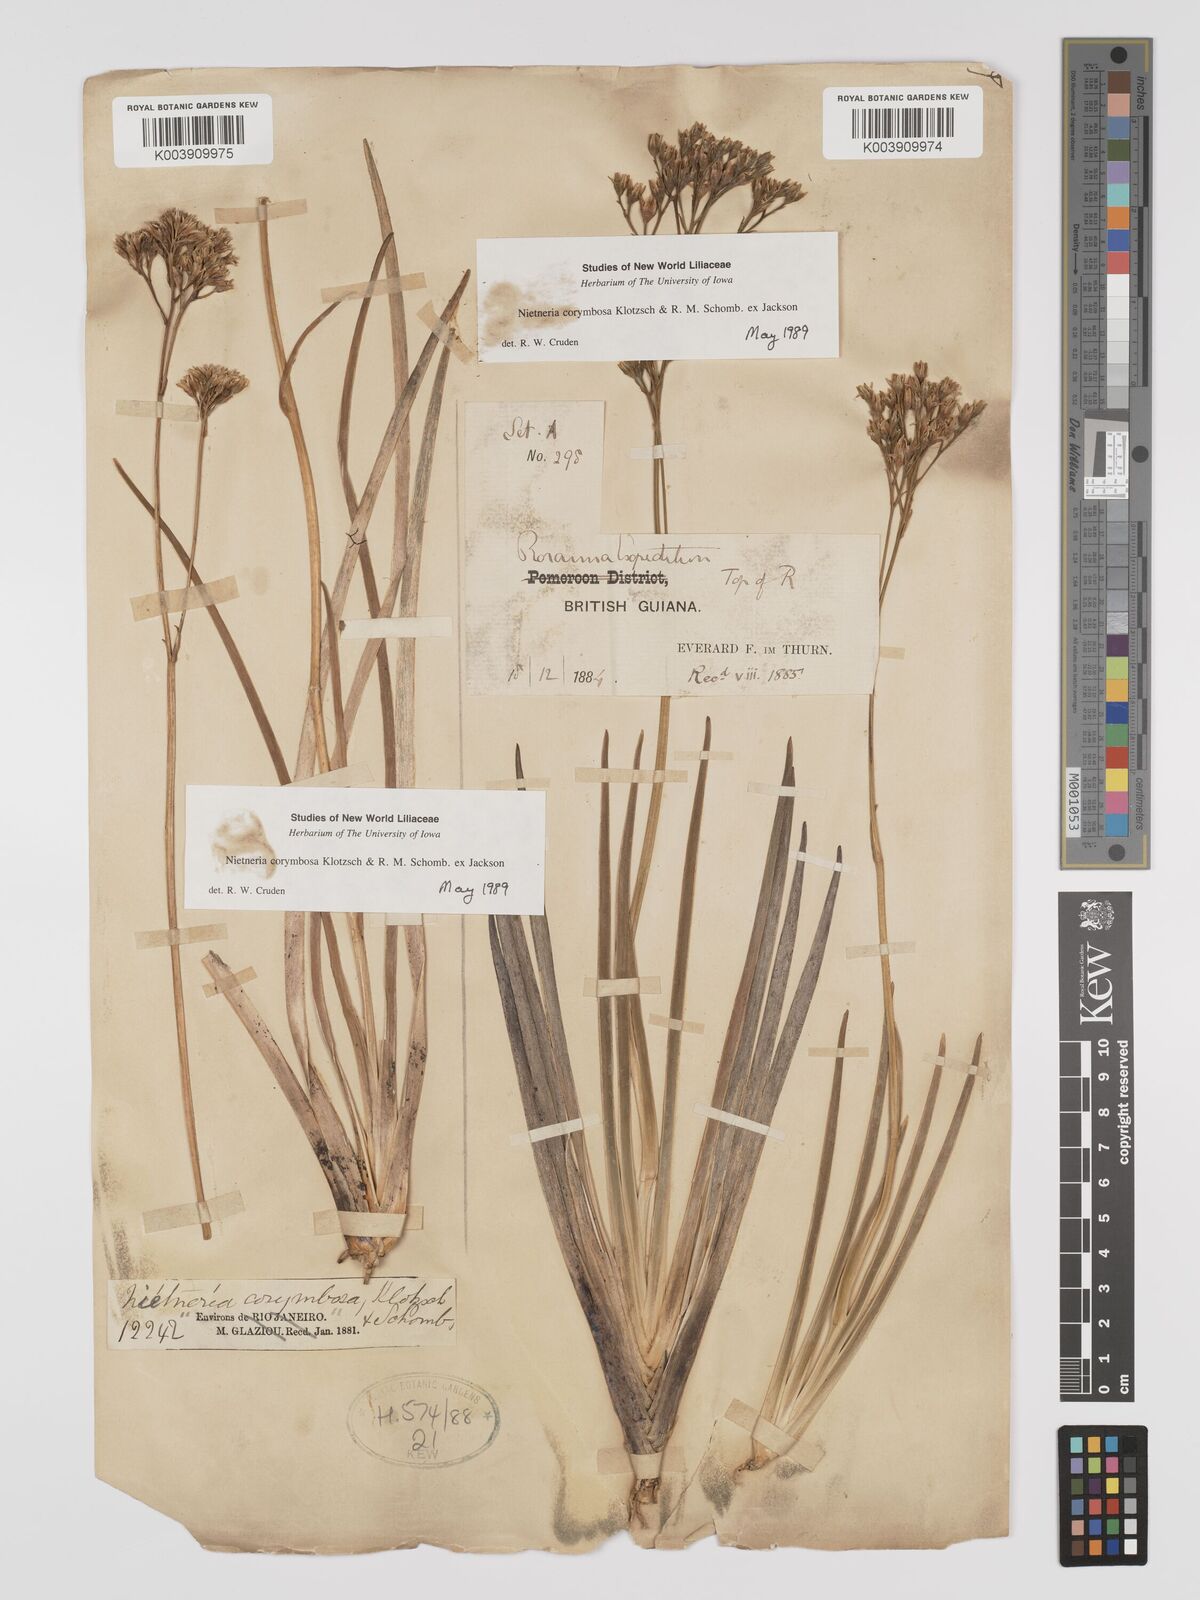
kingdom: Plantae
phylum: Tracheophyta
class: Liliopsida
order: Dioscoreales
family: Nartheciaceae
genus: Nietneria
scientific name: Nietneria corymbosa
